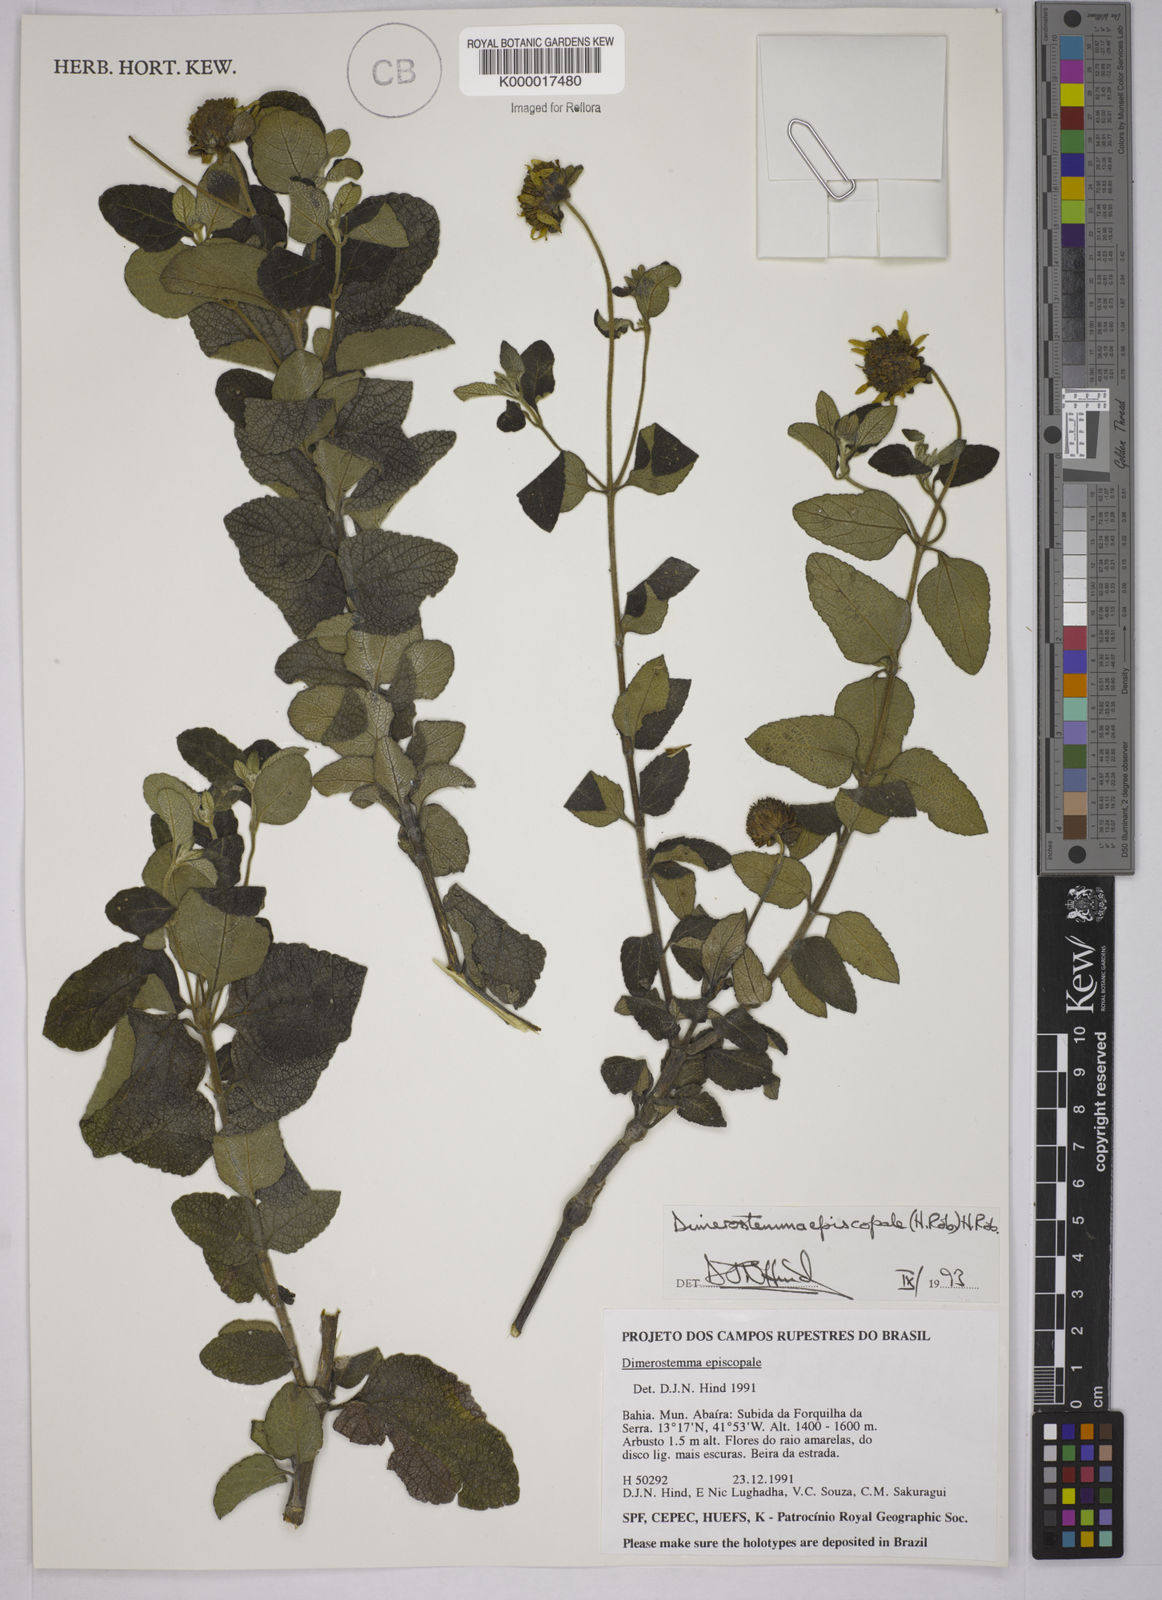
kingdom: Plantae
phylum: Tracheophyta
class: Magnoliopsida
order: Asterales
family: Asteraceae
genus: Dimerostemma
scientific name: Dimerostemma episcopale
